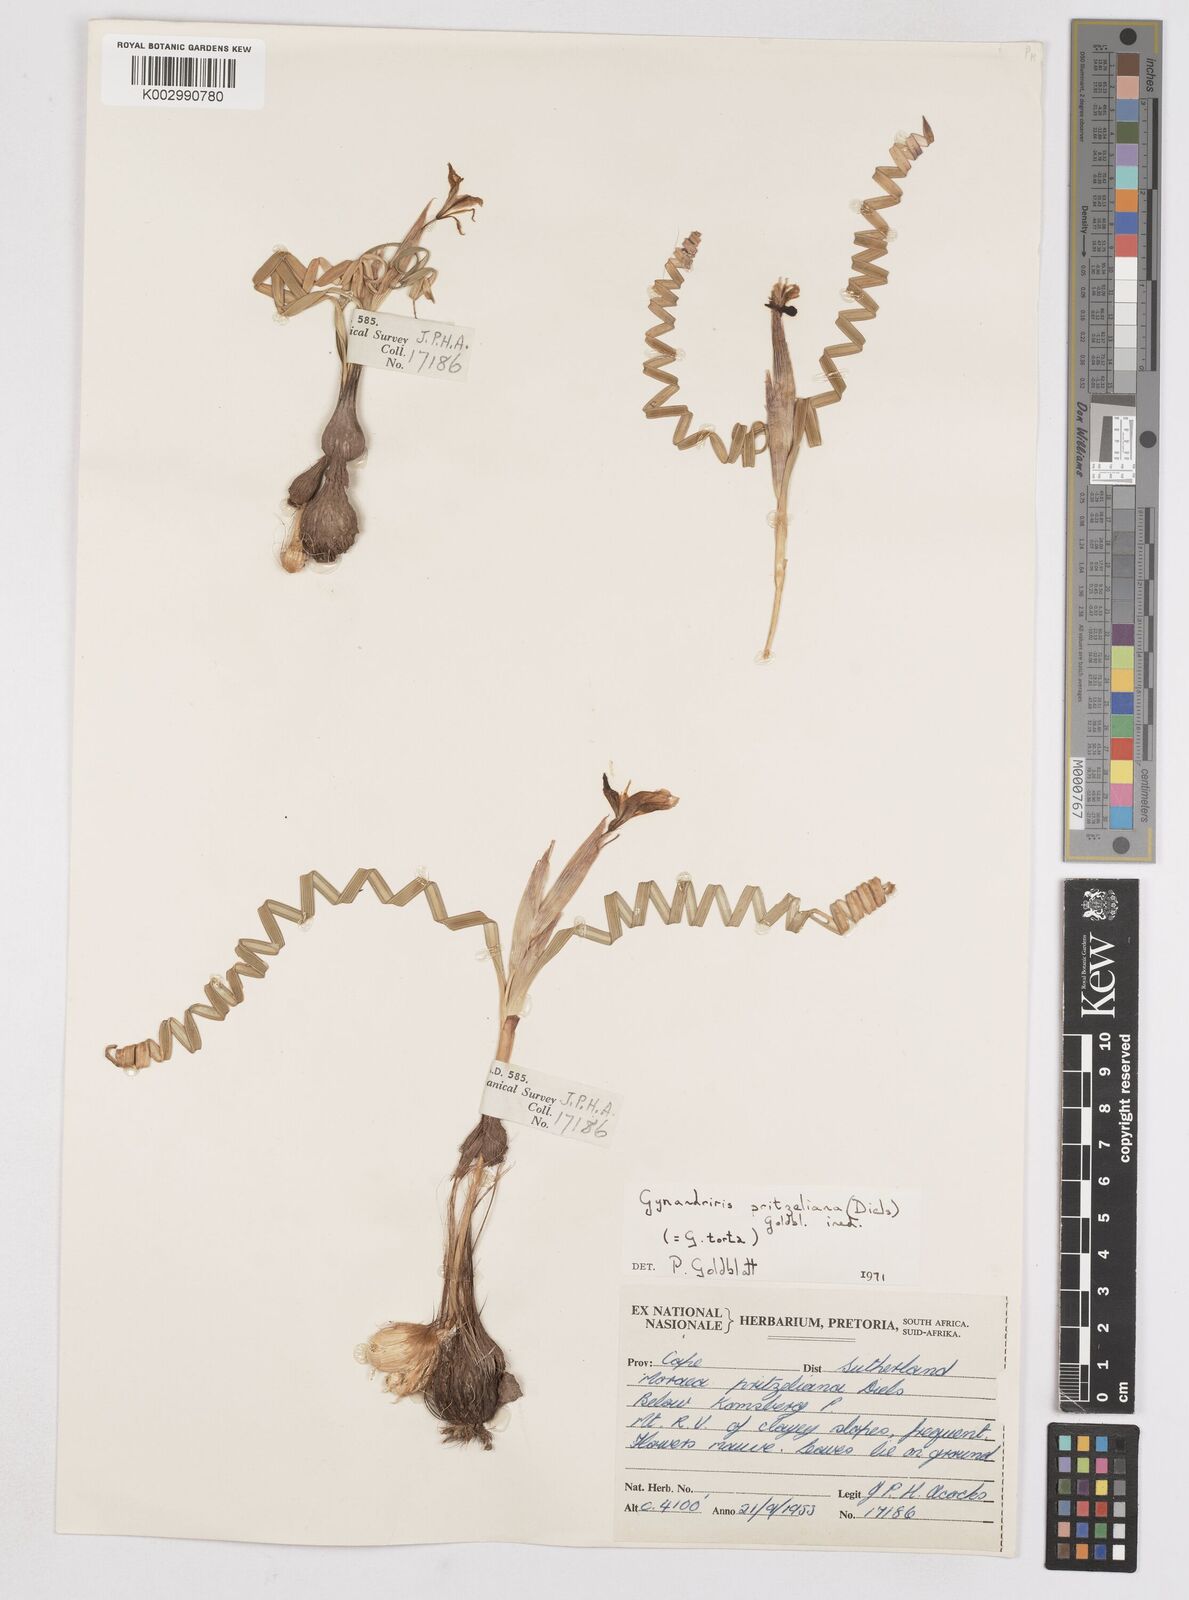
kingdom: Plantae
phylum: Tracheophyta
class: Liliopsida
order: Asparagales
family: Iridaceae
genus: Moraea
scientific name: Moraea pritzeliana
